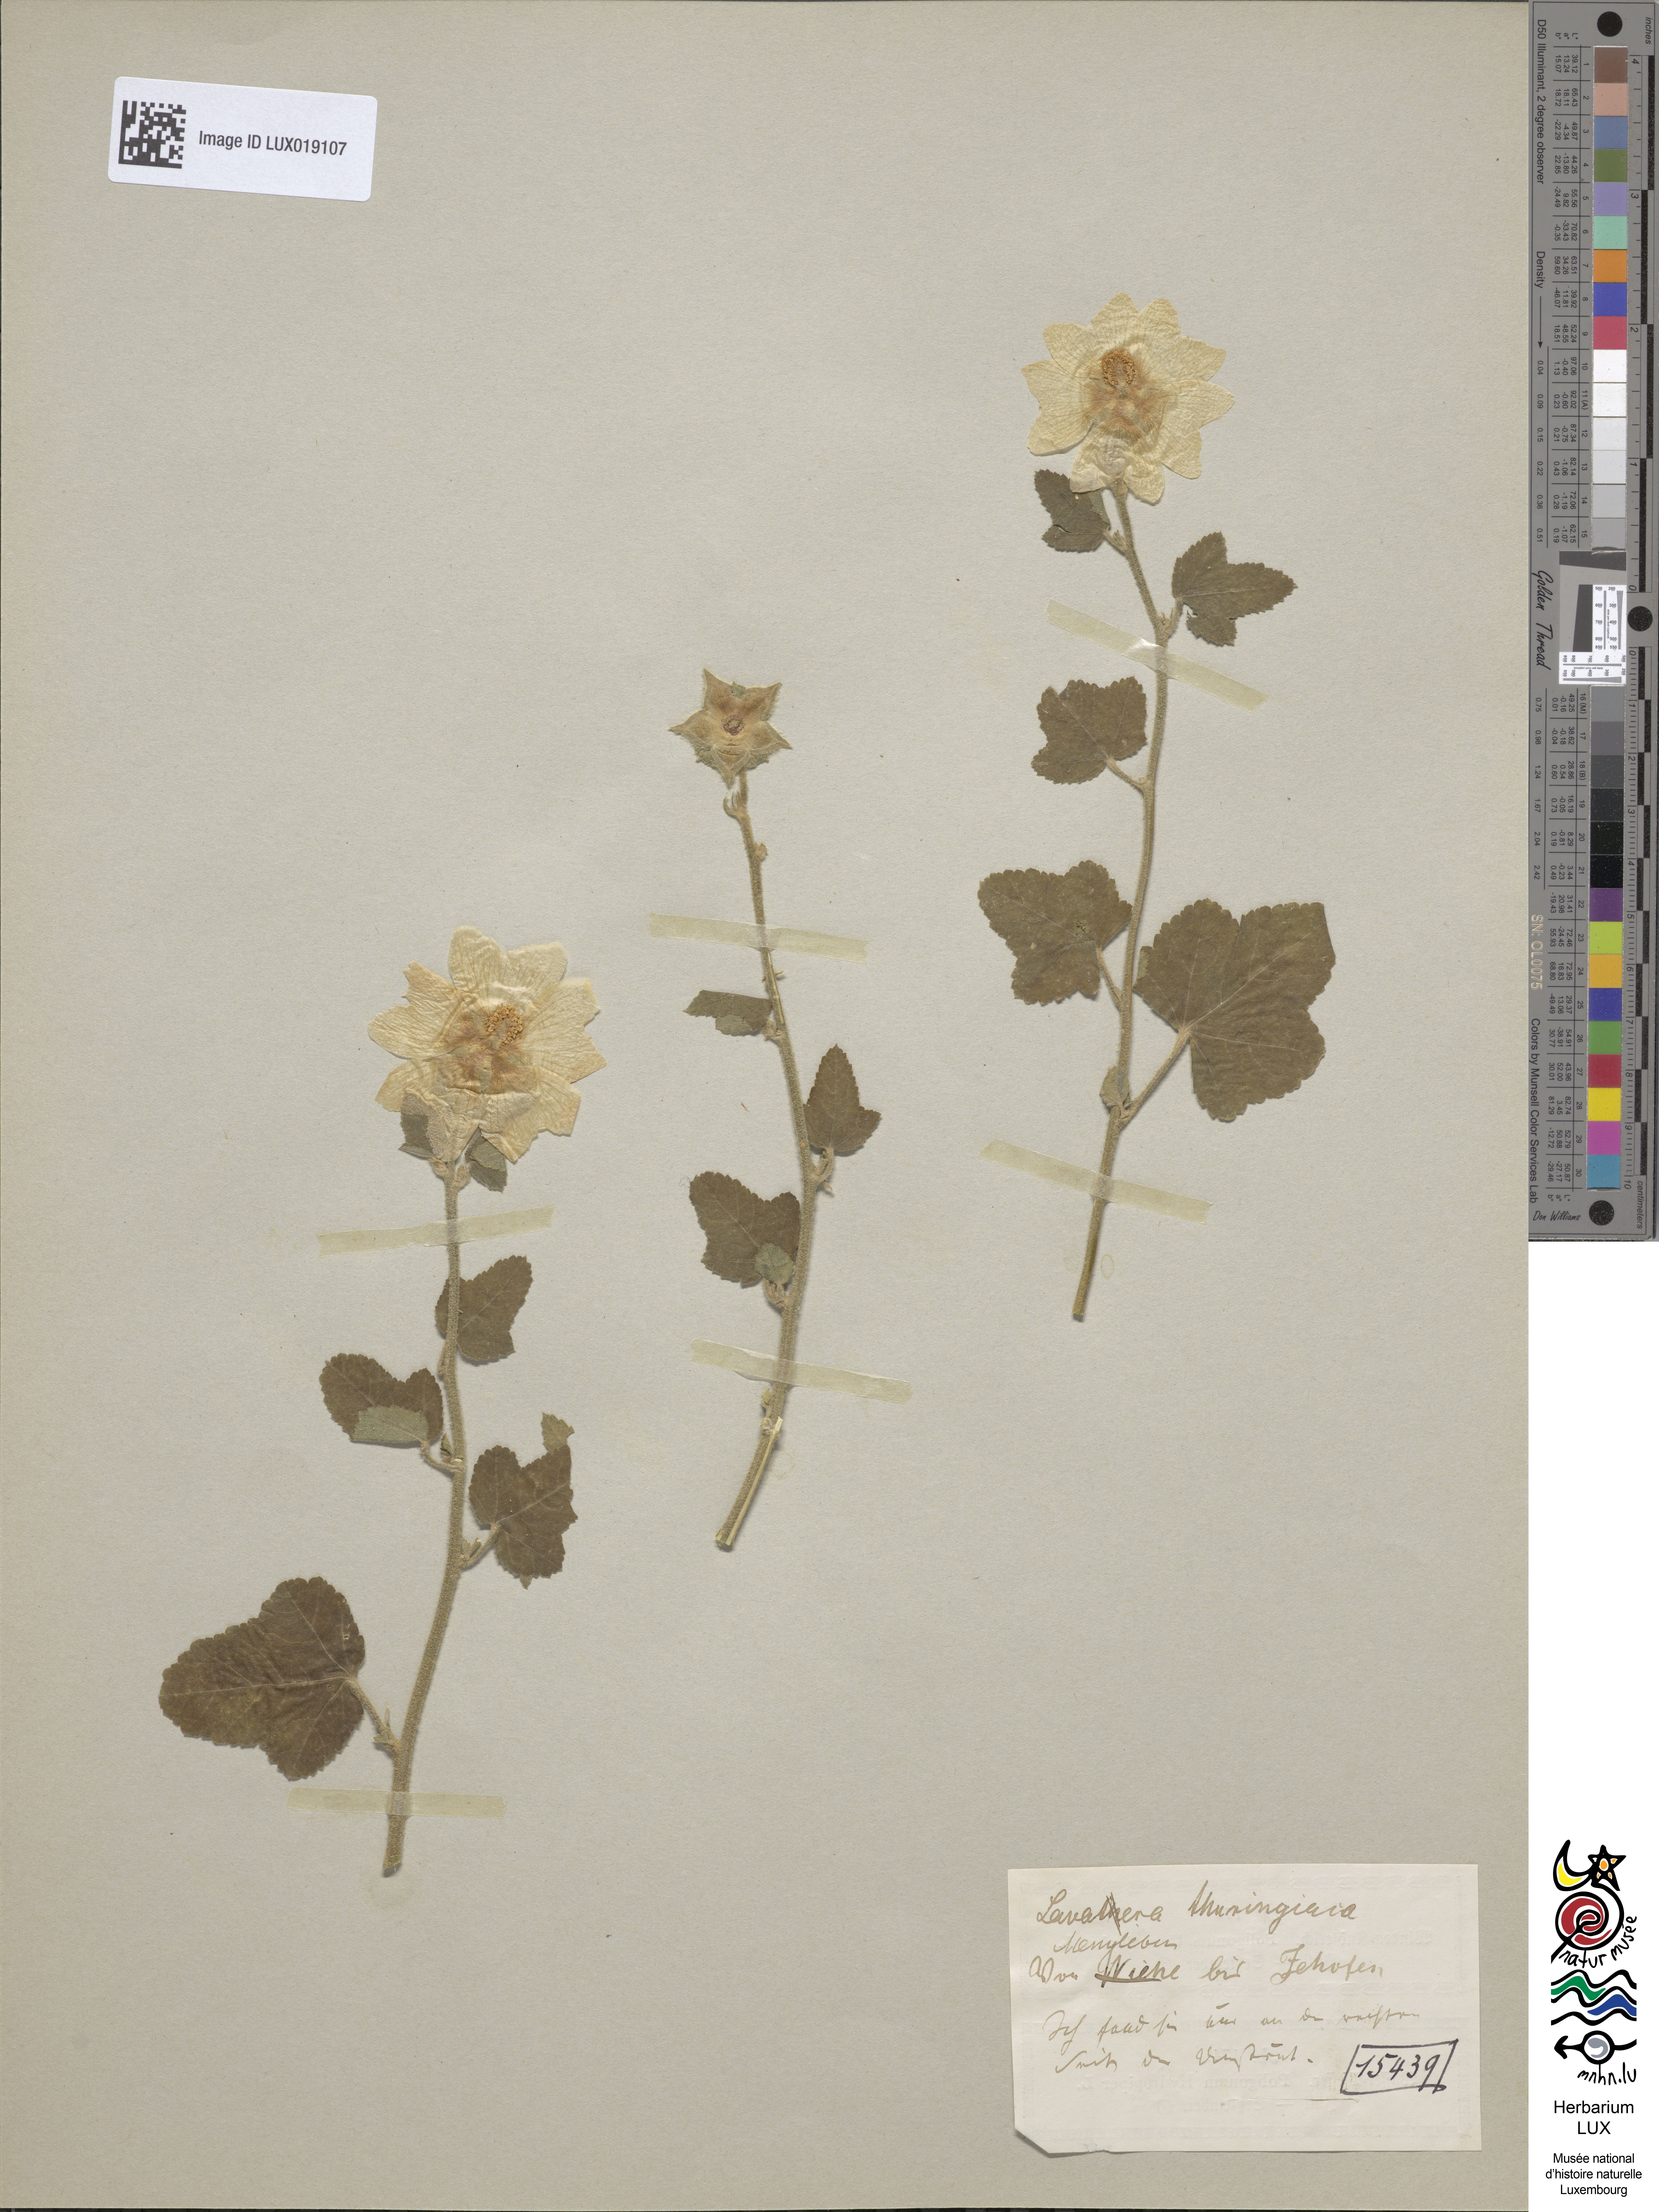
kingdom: Plantae
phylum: Tracheophyta
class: Magnoliopsida
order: Malvales
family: Malvaceae
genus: Malva
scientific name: Malva thuringiaca
